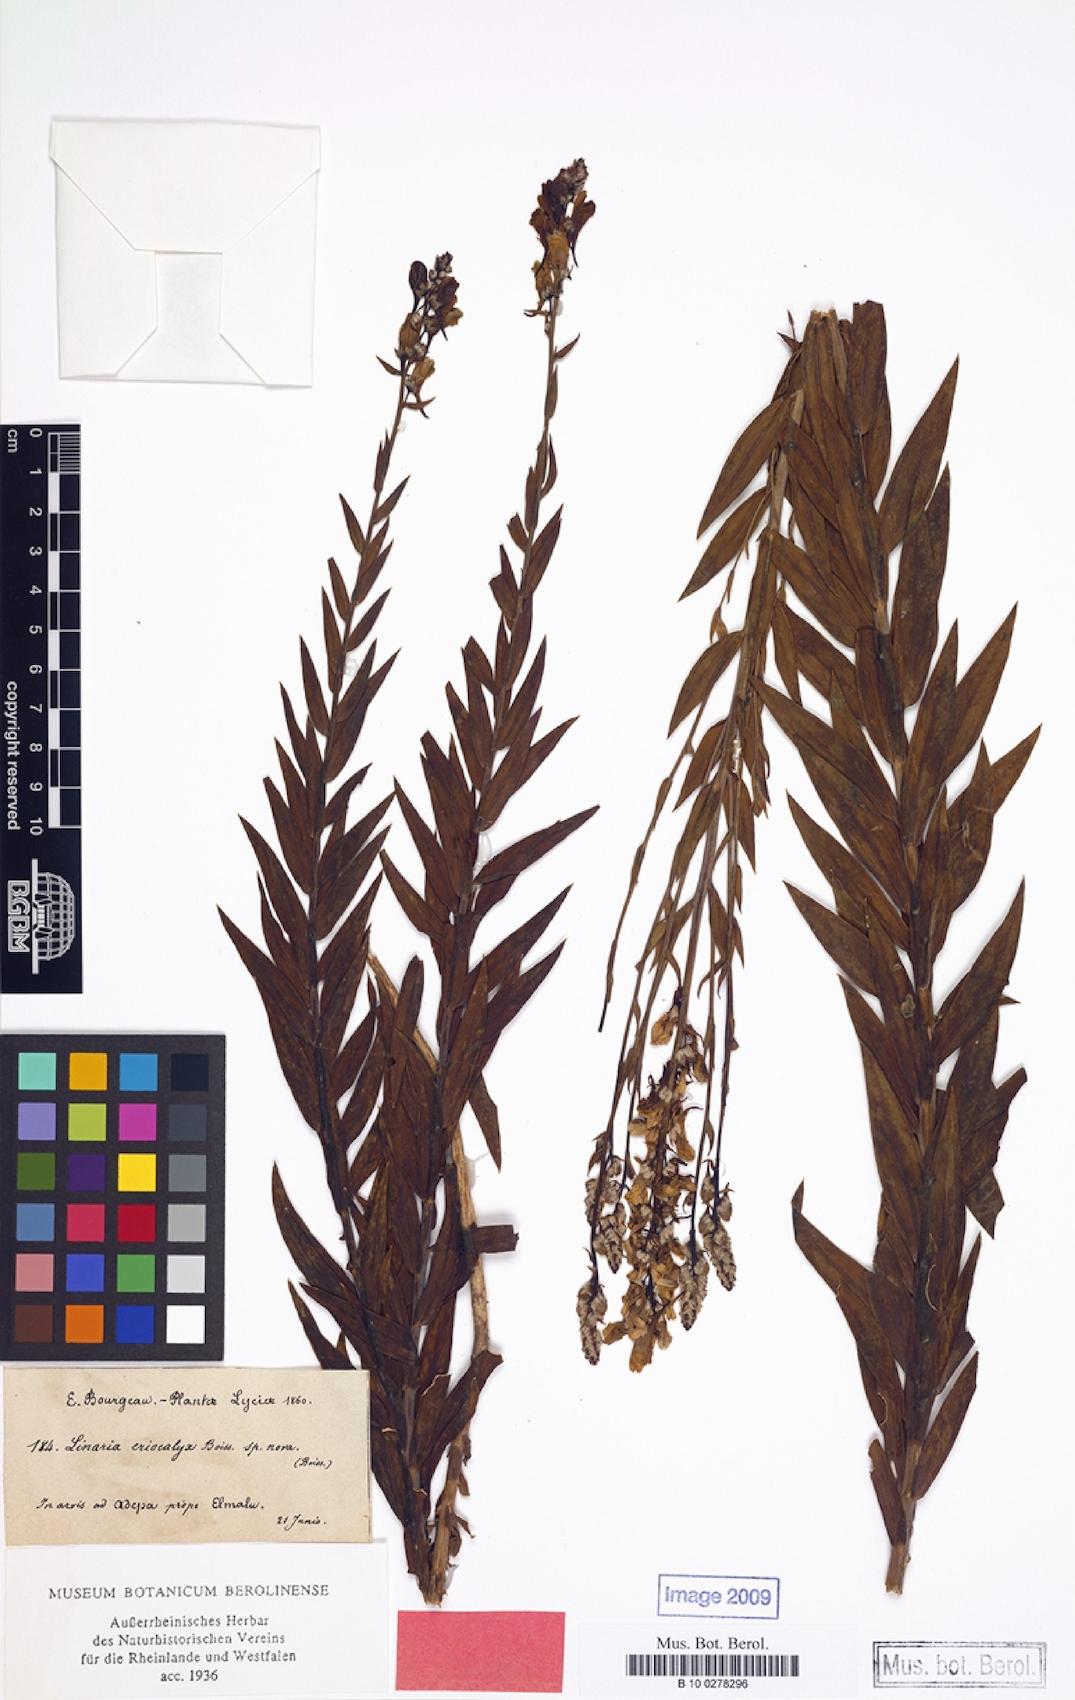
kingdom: Plantae
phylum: Tracheophyta
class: Magnoliopsida
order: Lamiales
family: Plantaginaceae
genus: Linaria
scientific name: Linaria kurdica
